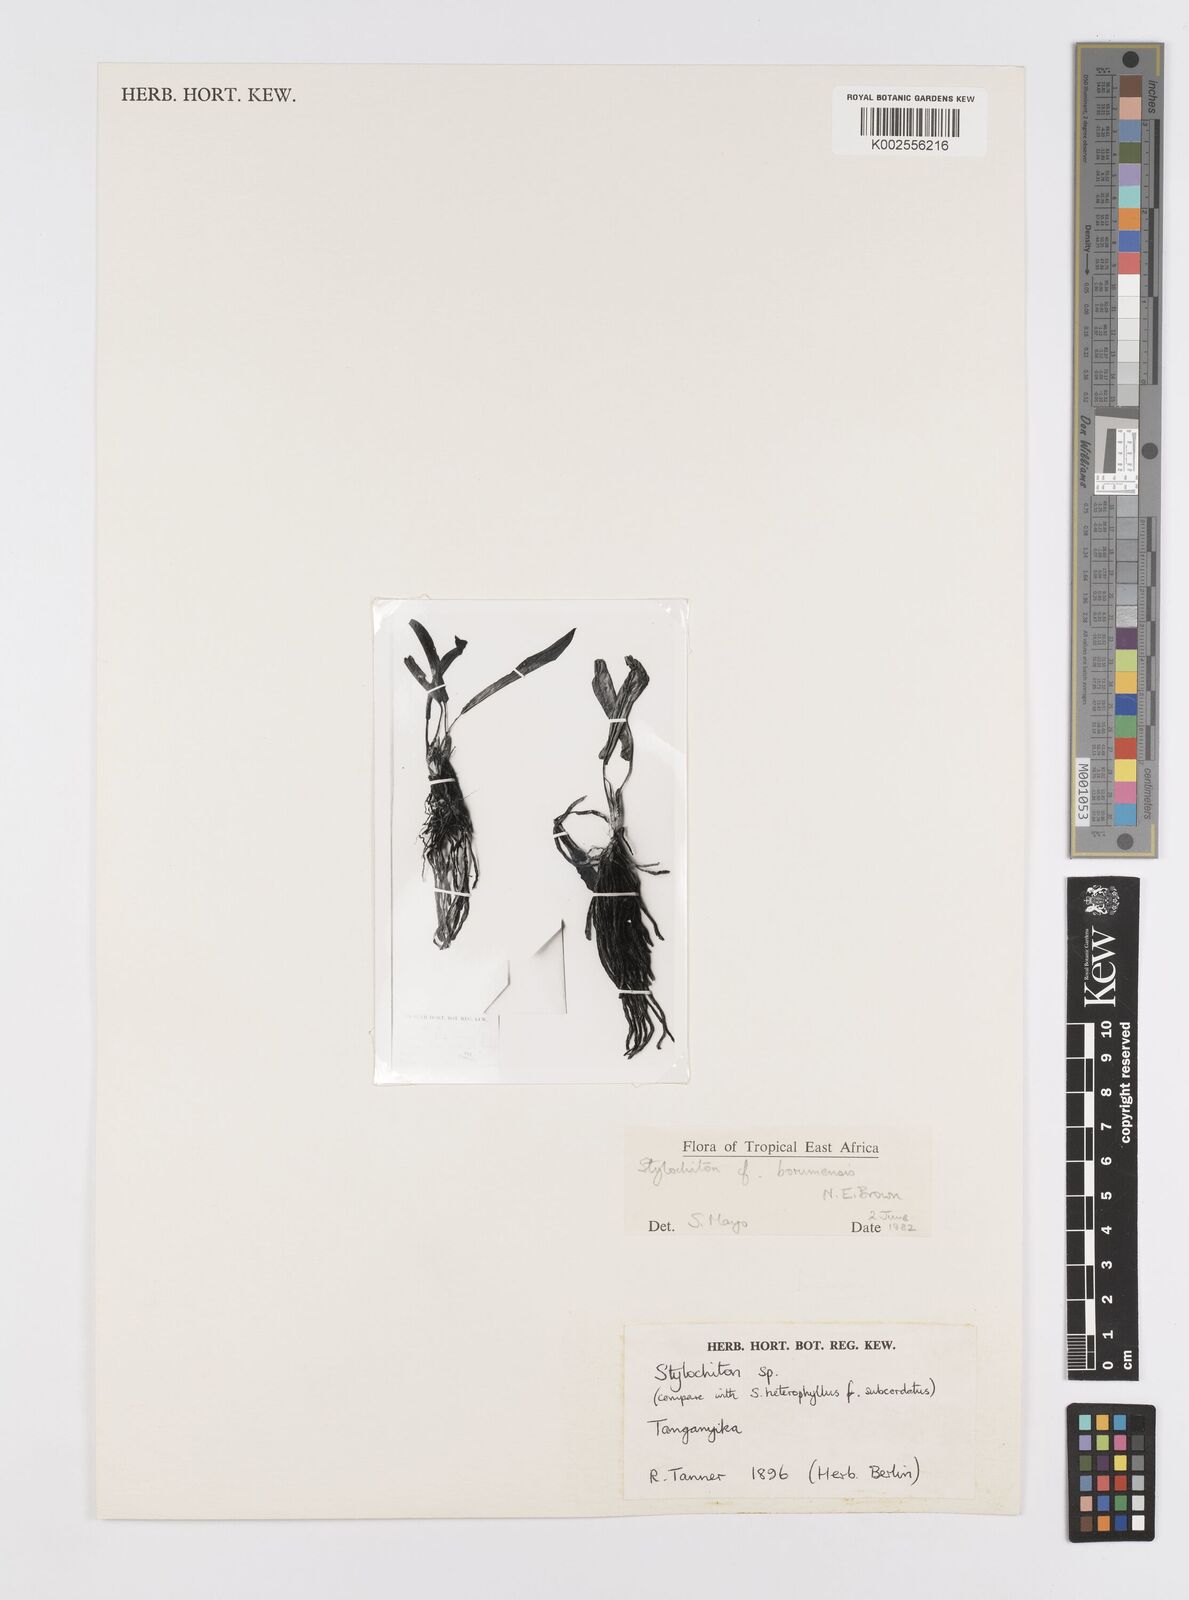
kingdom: Plantae
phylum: Tracheophyta
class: Liliopsida
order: Alismatales
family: Araceae
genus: Stylochaeton
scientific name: Stylochaeton borumense
